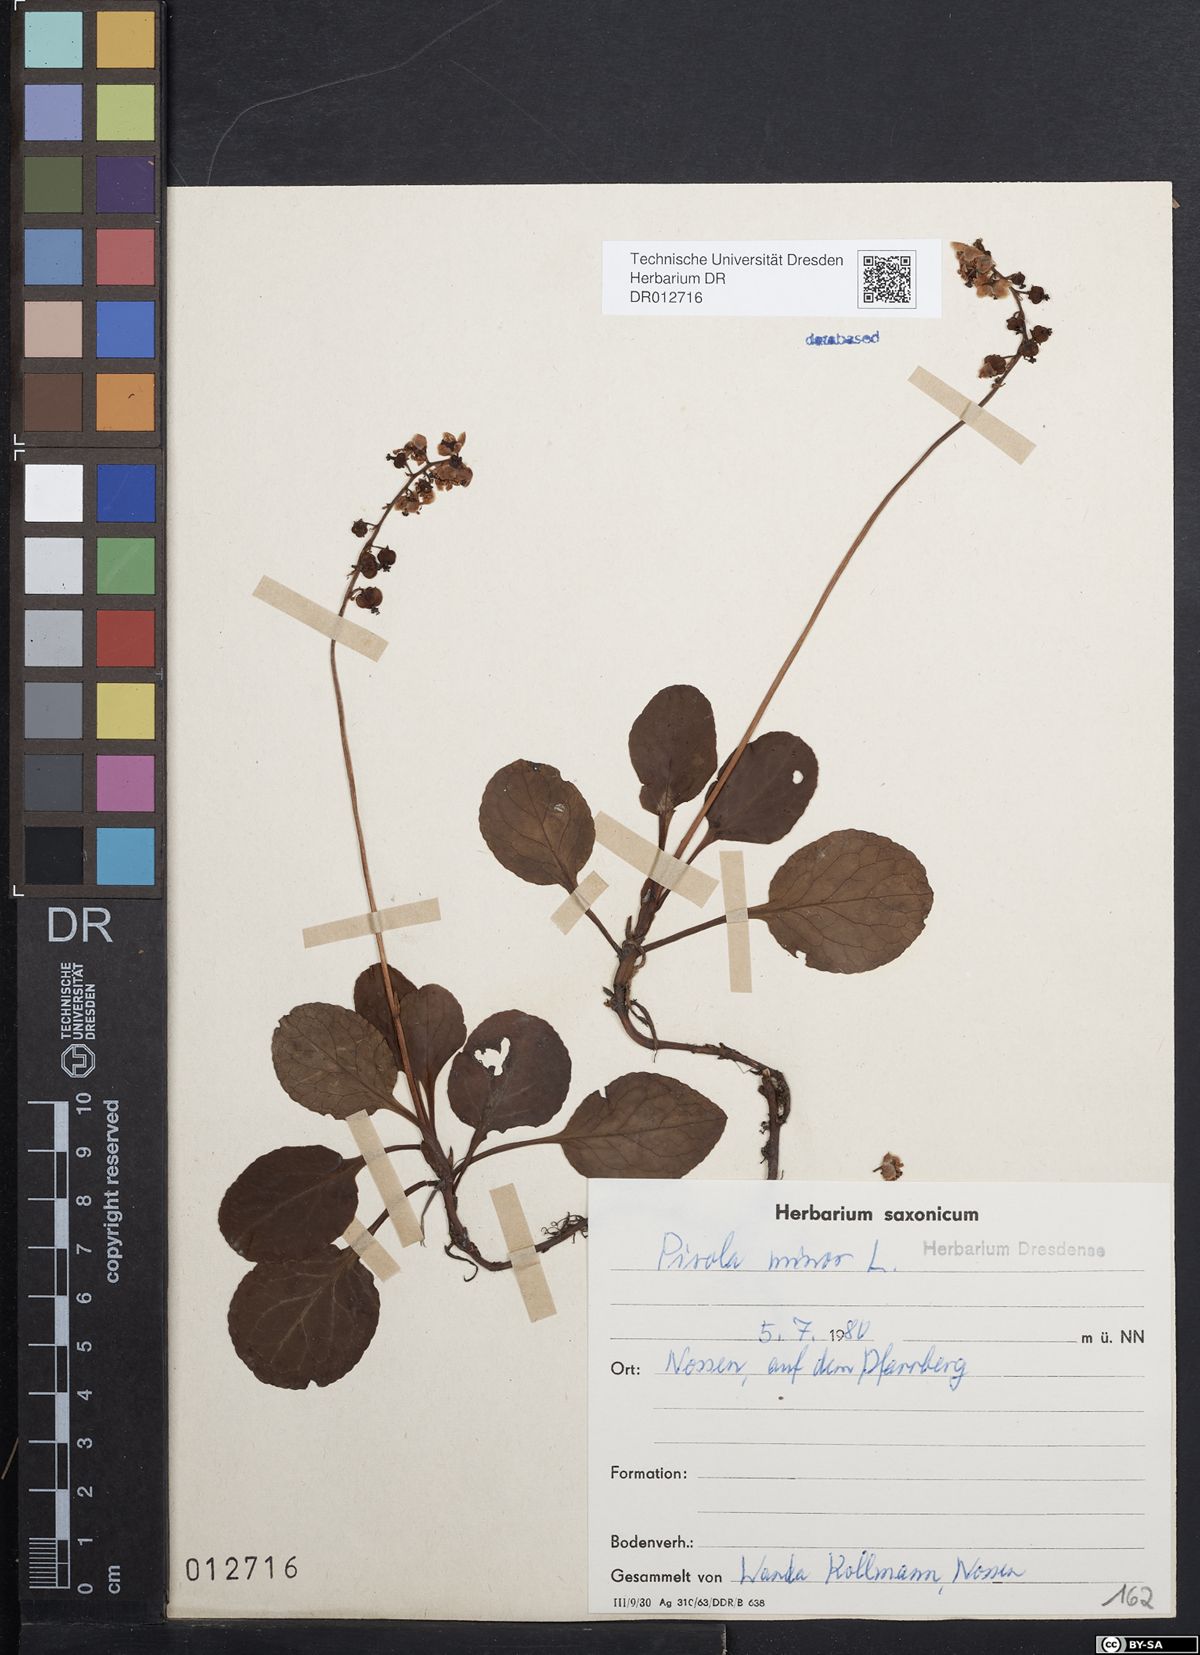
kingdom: Plantae
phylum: Tracheophyta
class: Magnoliopsida
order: Ericales
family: Ericaceae
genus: Pyrola
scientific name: Pyrola minor
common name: Common wintergreen
